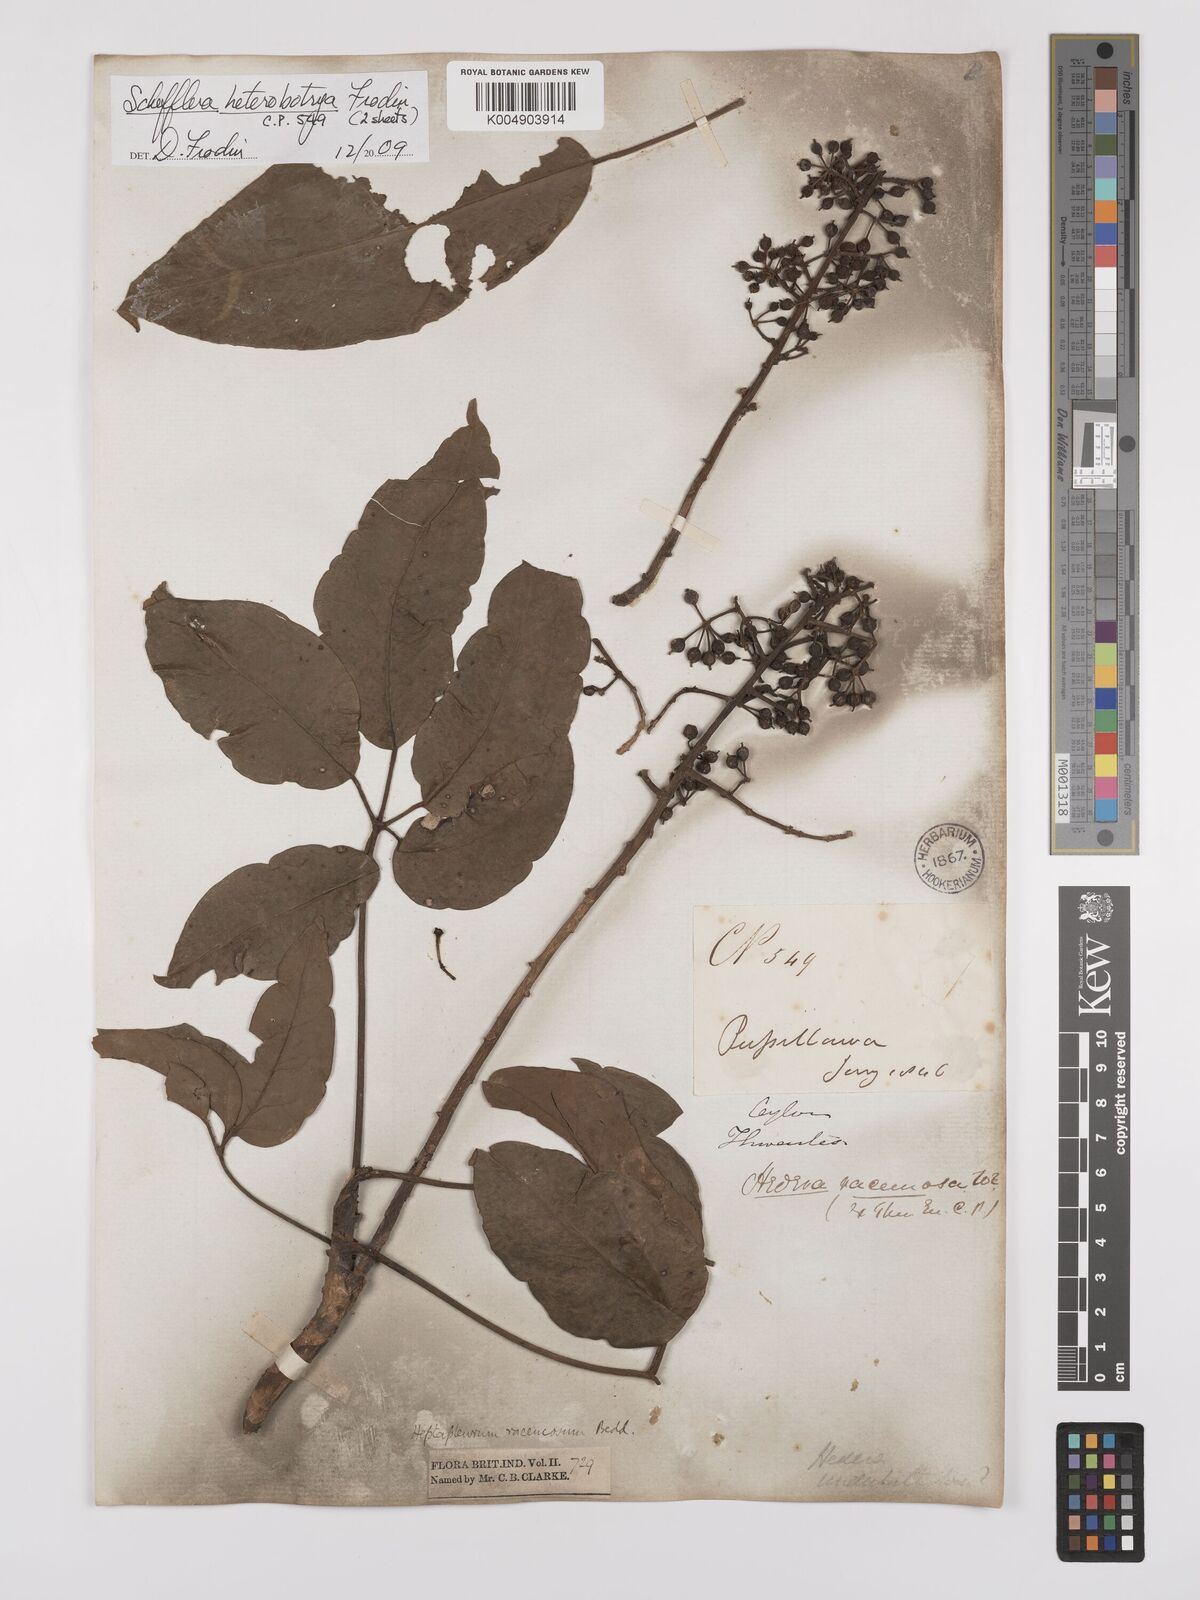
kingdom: Plantae
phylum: Tracheophyta
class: Magnoliopsida
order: Apiales
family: Araliaceae
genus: Heptapleurum
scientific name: Heptapleurum
